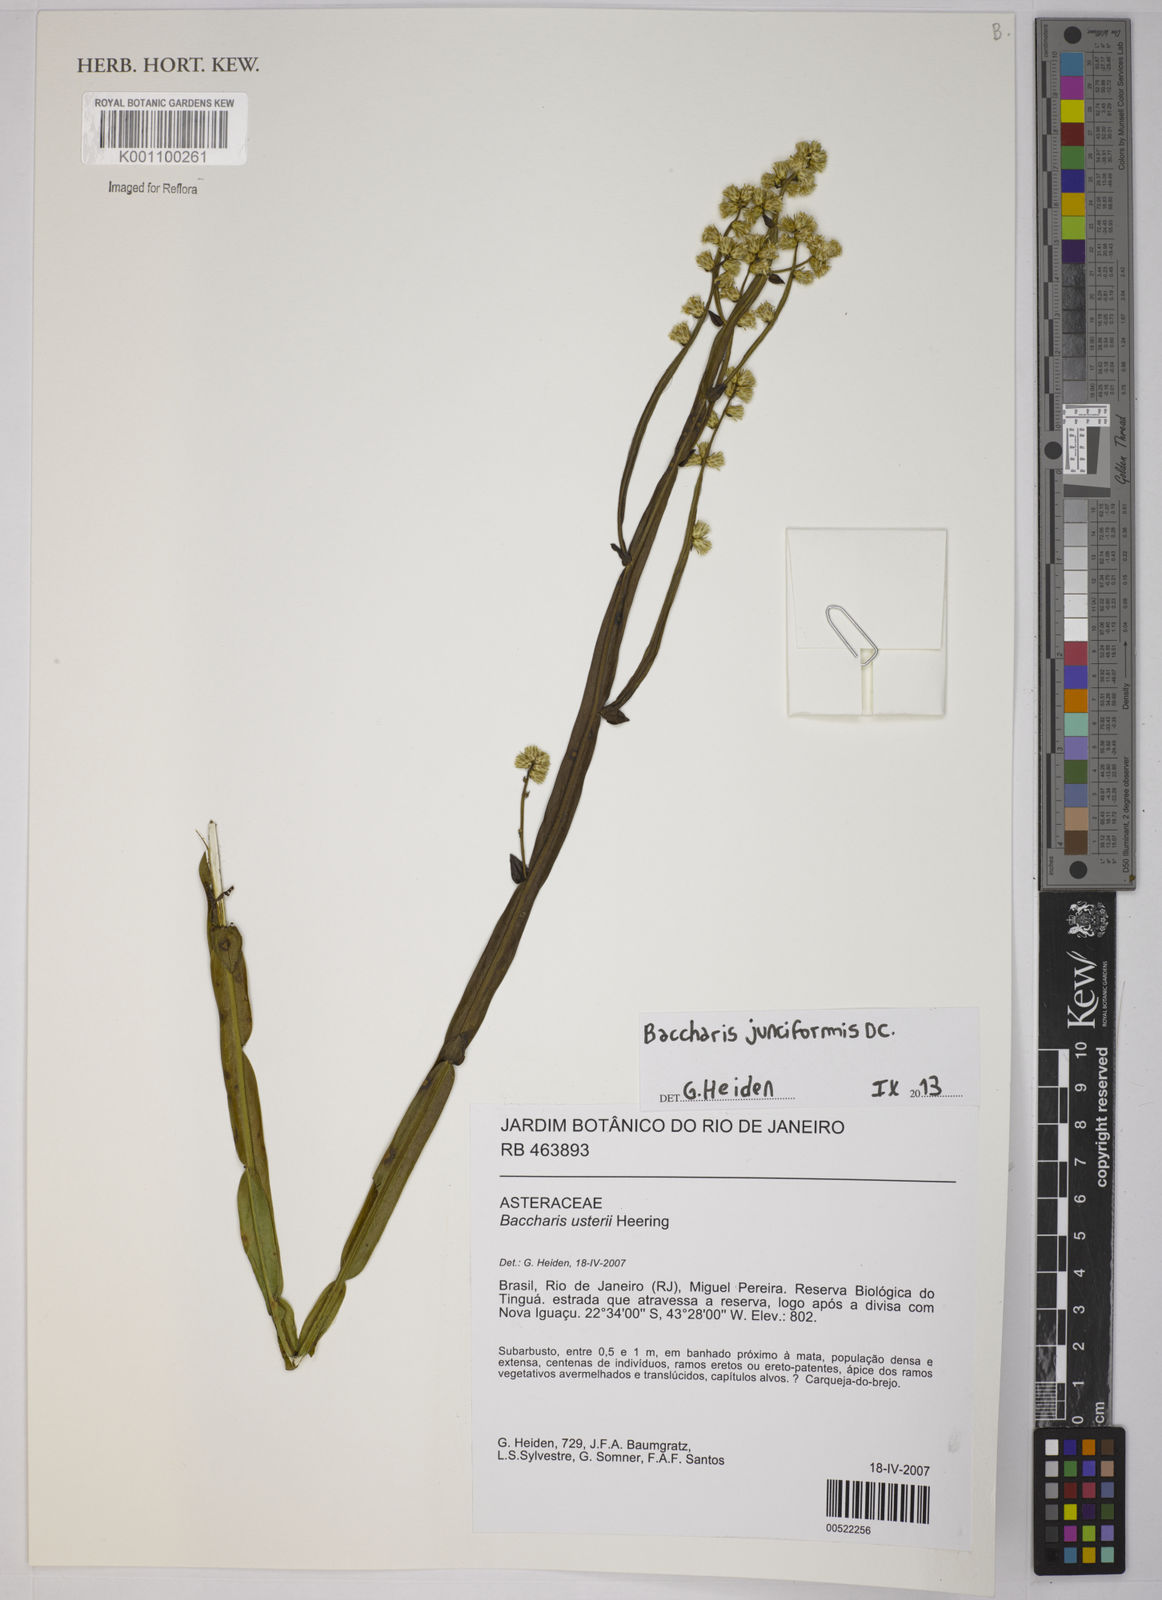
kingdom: Plantae
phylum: Tracheophyta
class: Magnoliopsida
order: Asterales
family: Asteraceae
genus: Baccharis
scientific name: Baccharis junciformis
